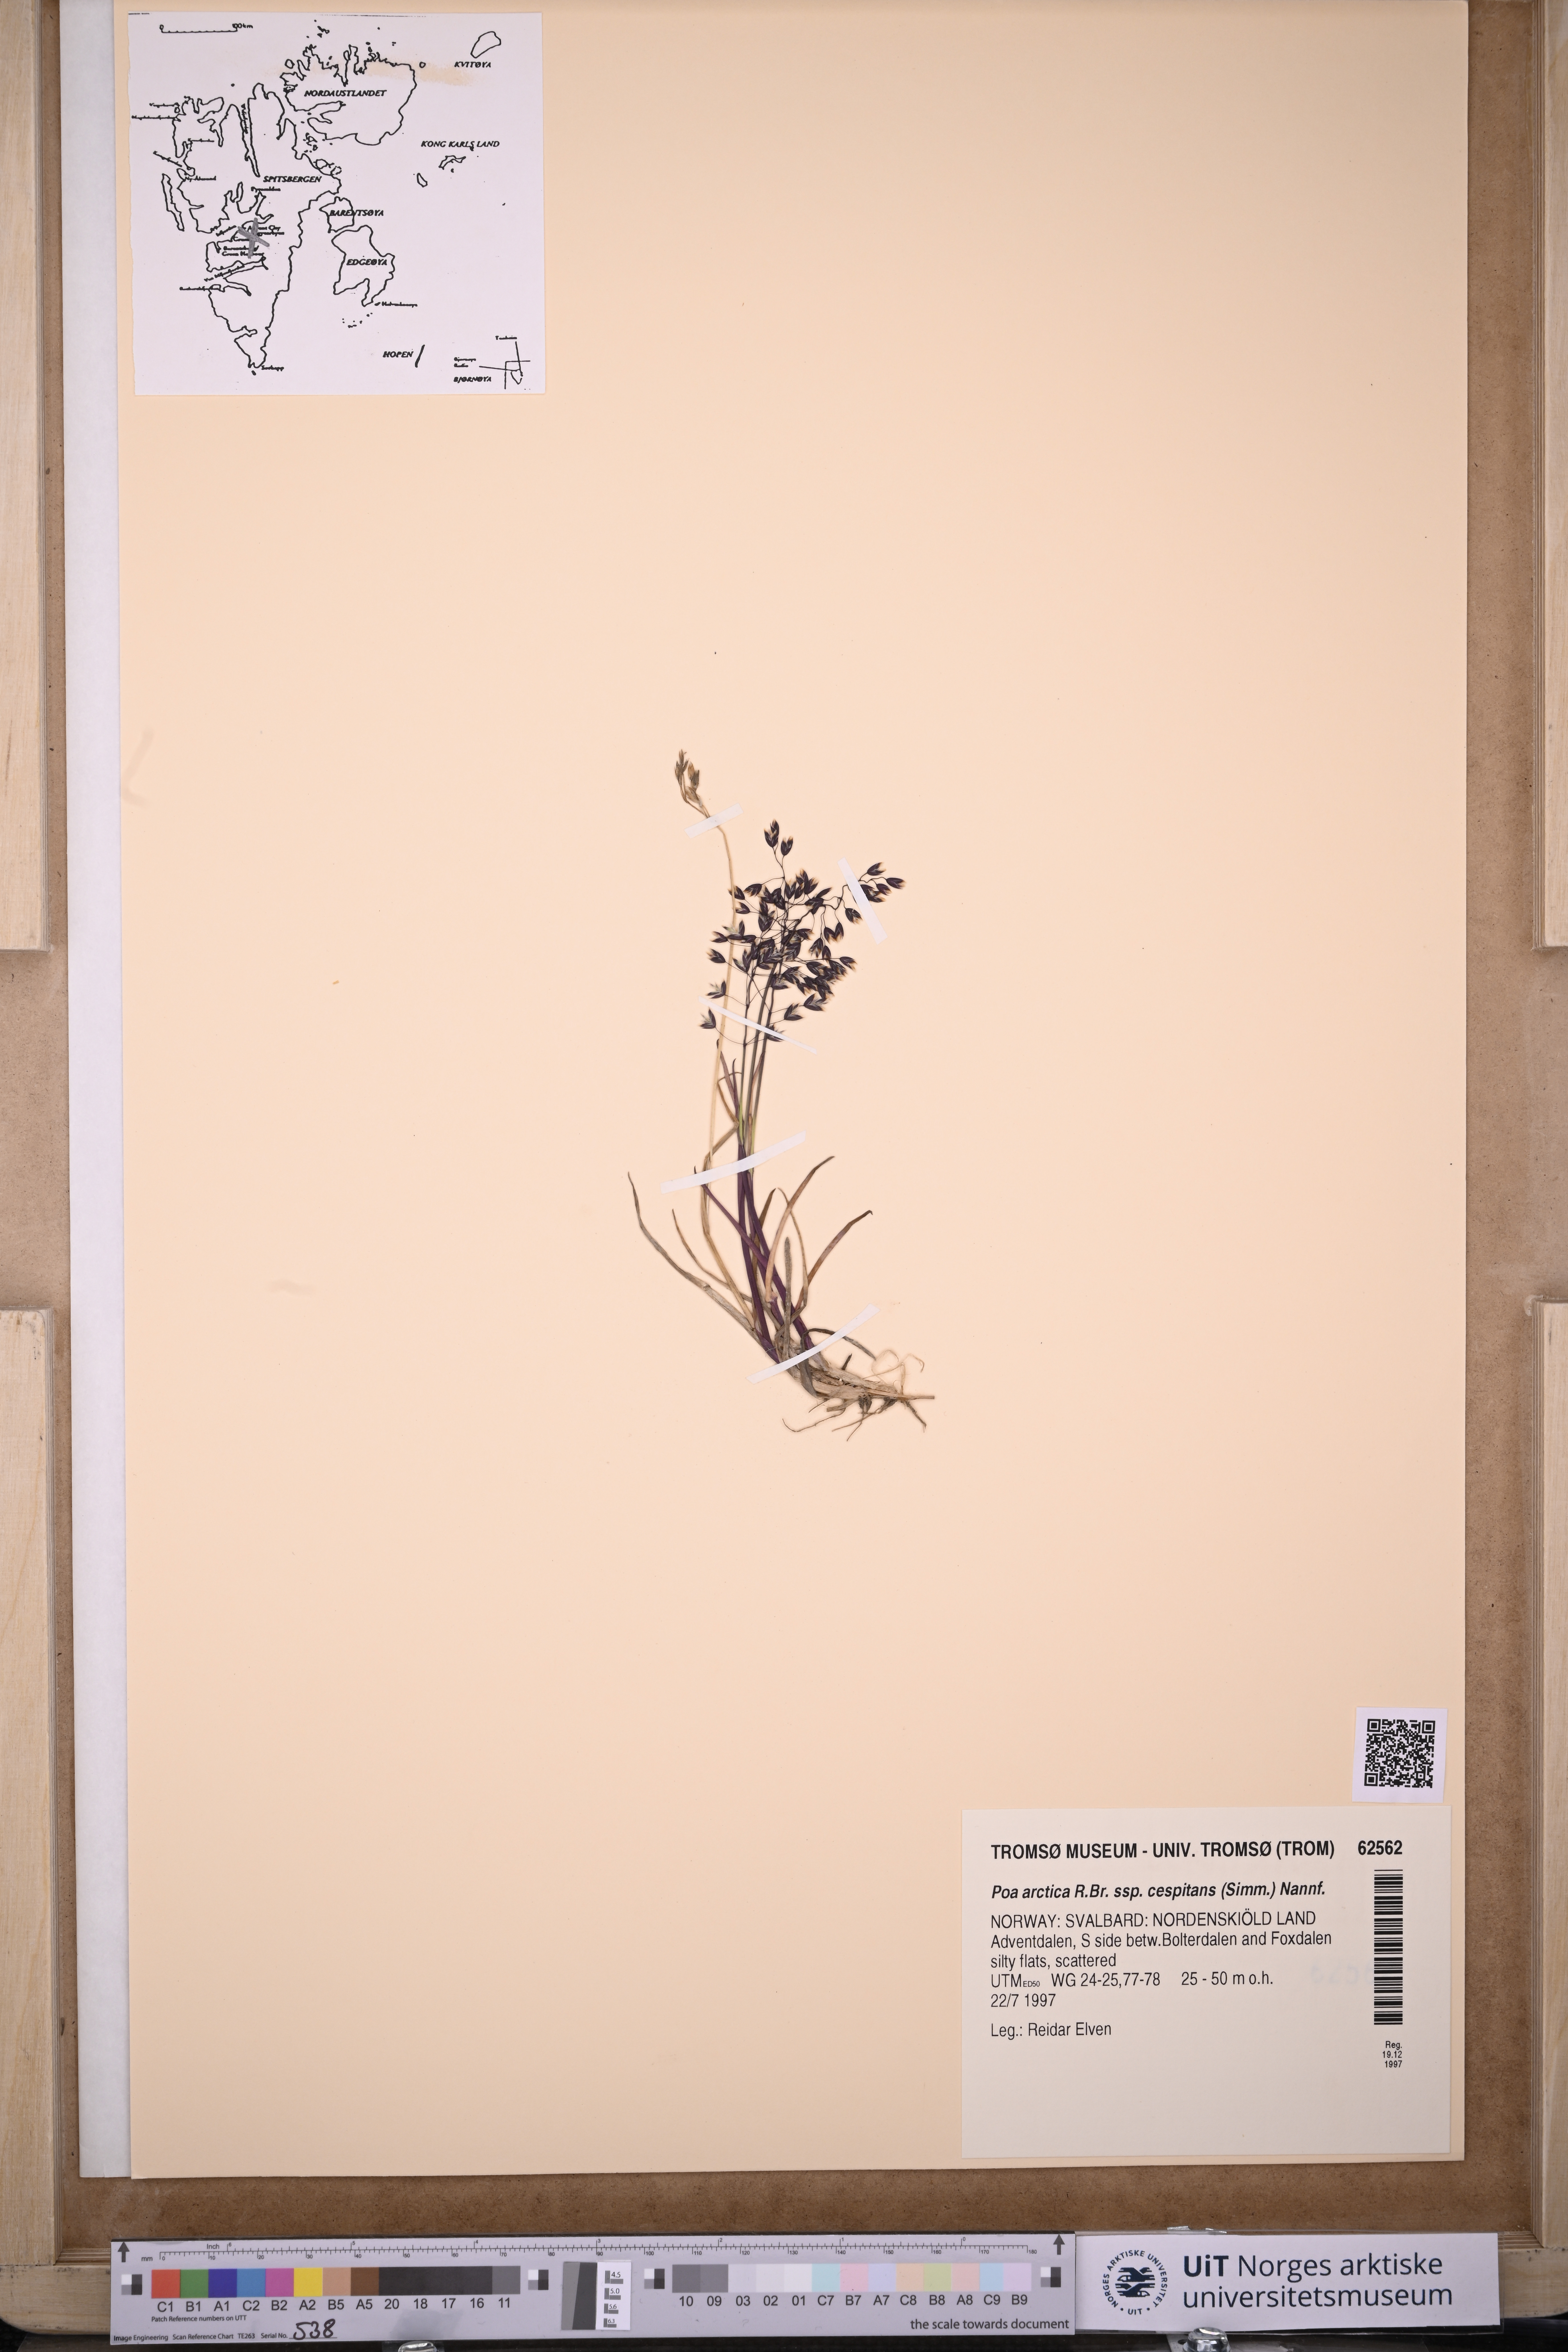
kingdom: Plantae
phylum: Tracheophyta
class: Liliopsida
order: Poales
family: Poaceae
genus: Poa
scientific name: Poa tolmatchewii
